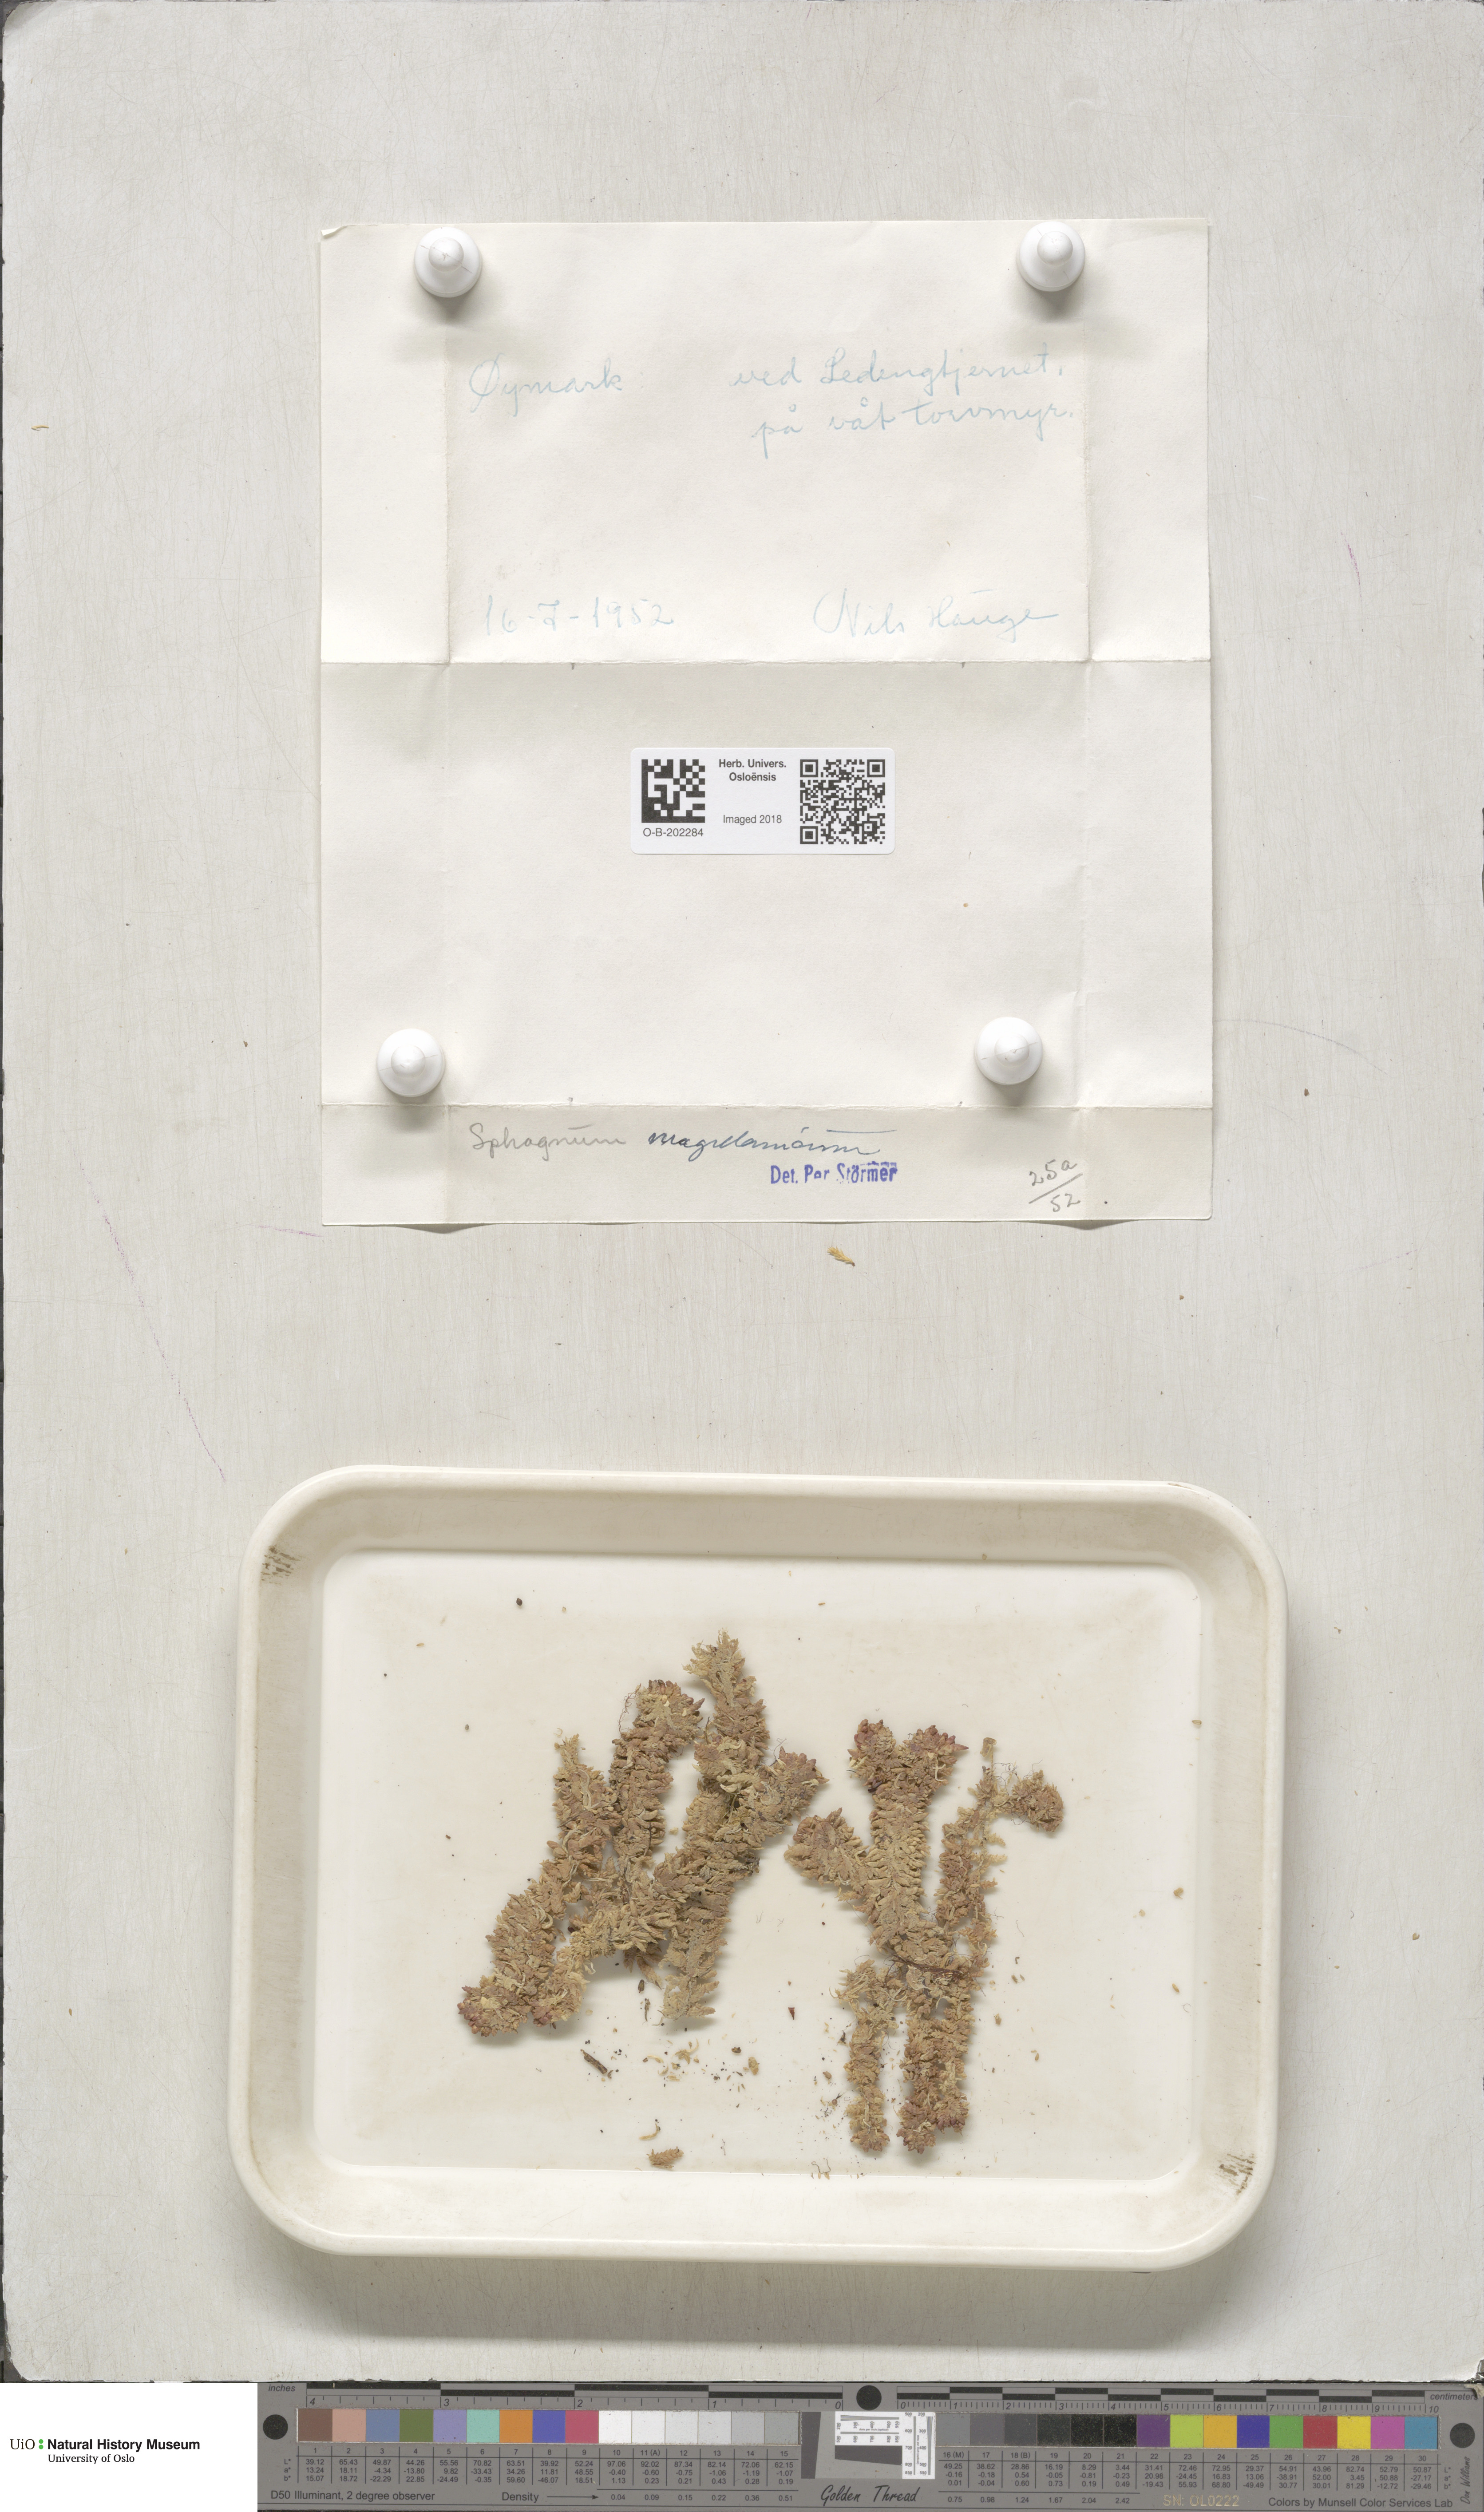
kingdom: Plantae
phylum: Bryophyta
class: Sphagnopsida
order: Sphagnales
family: Sphagnaceae
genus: Sphagnum
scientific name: Sphagnum magellanicum
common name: Magellan's peat moss
